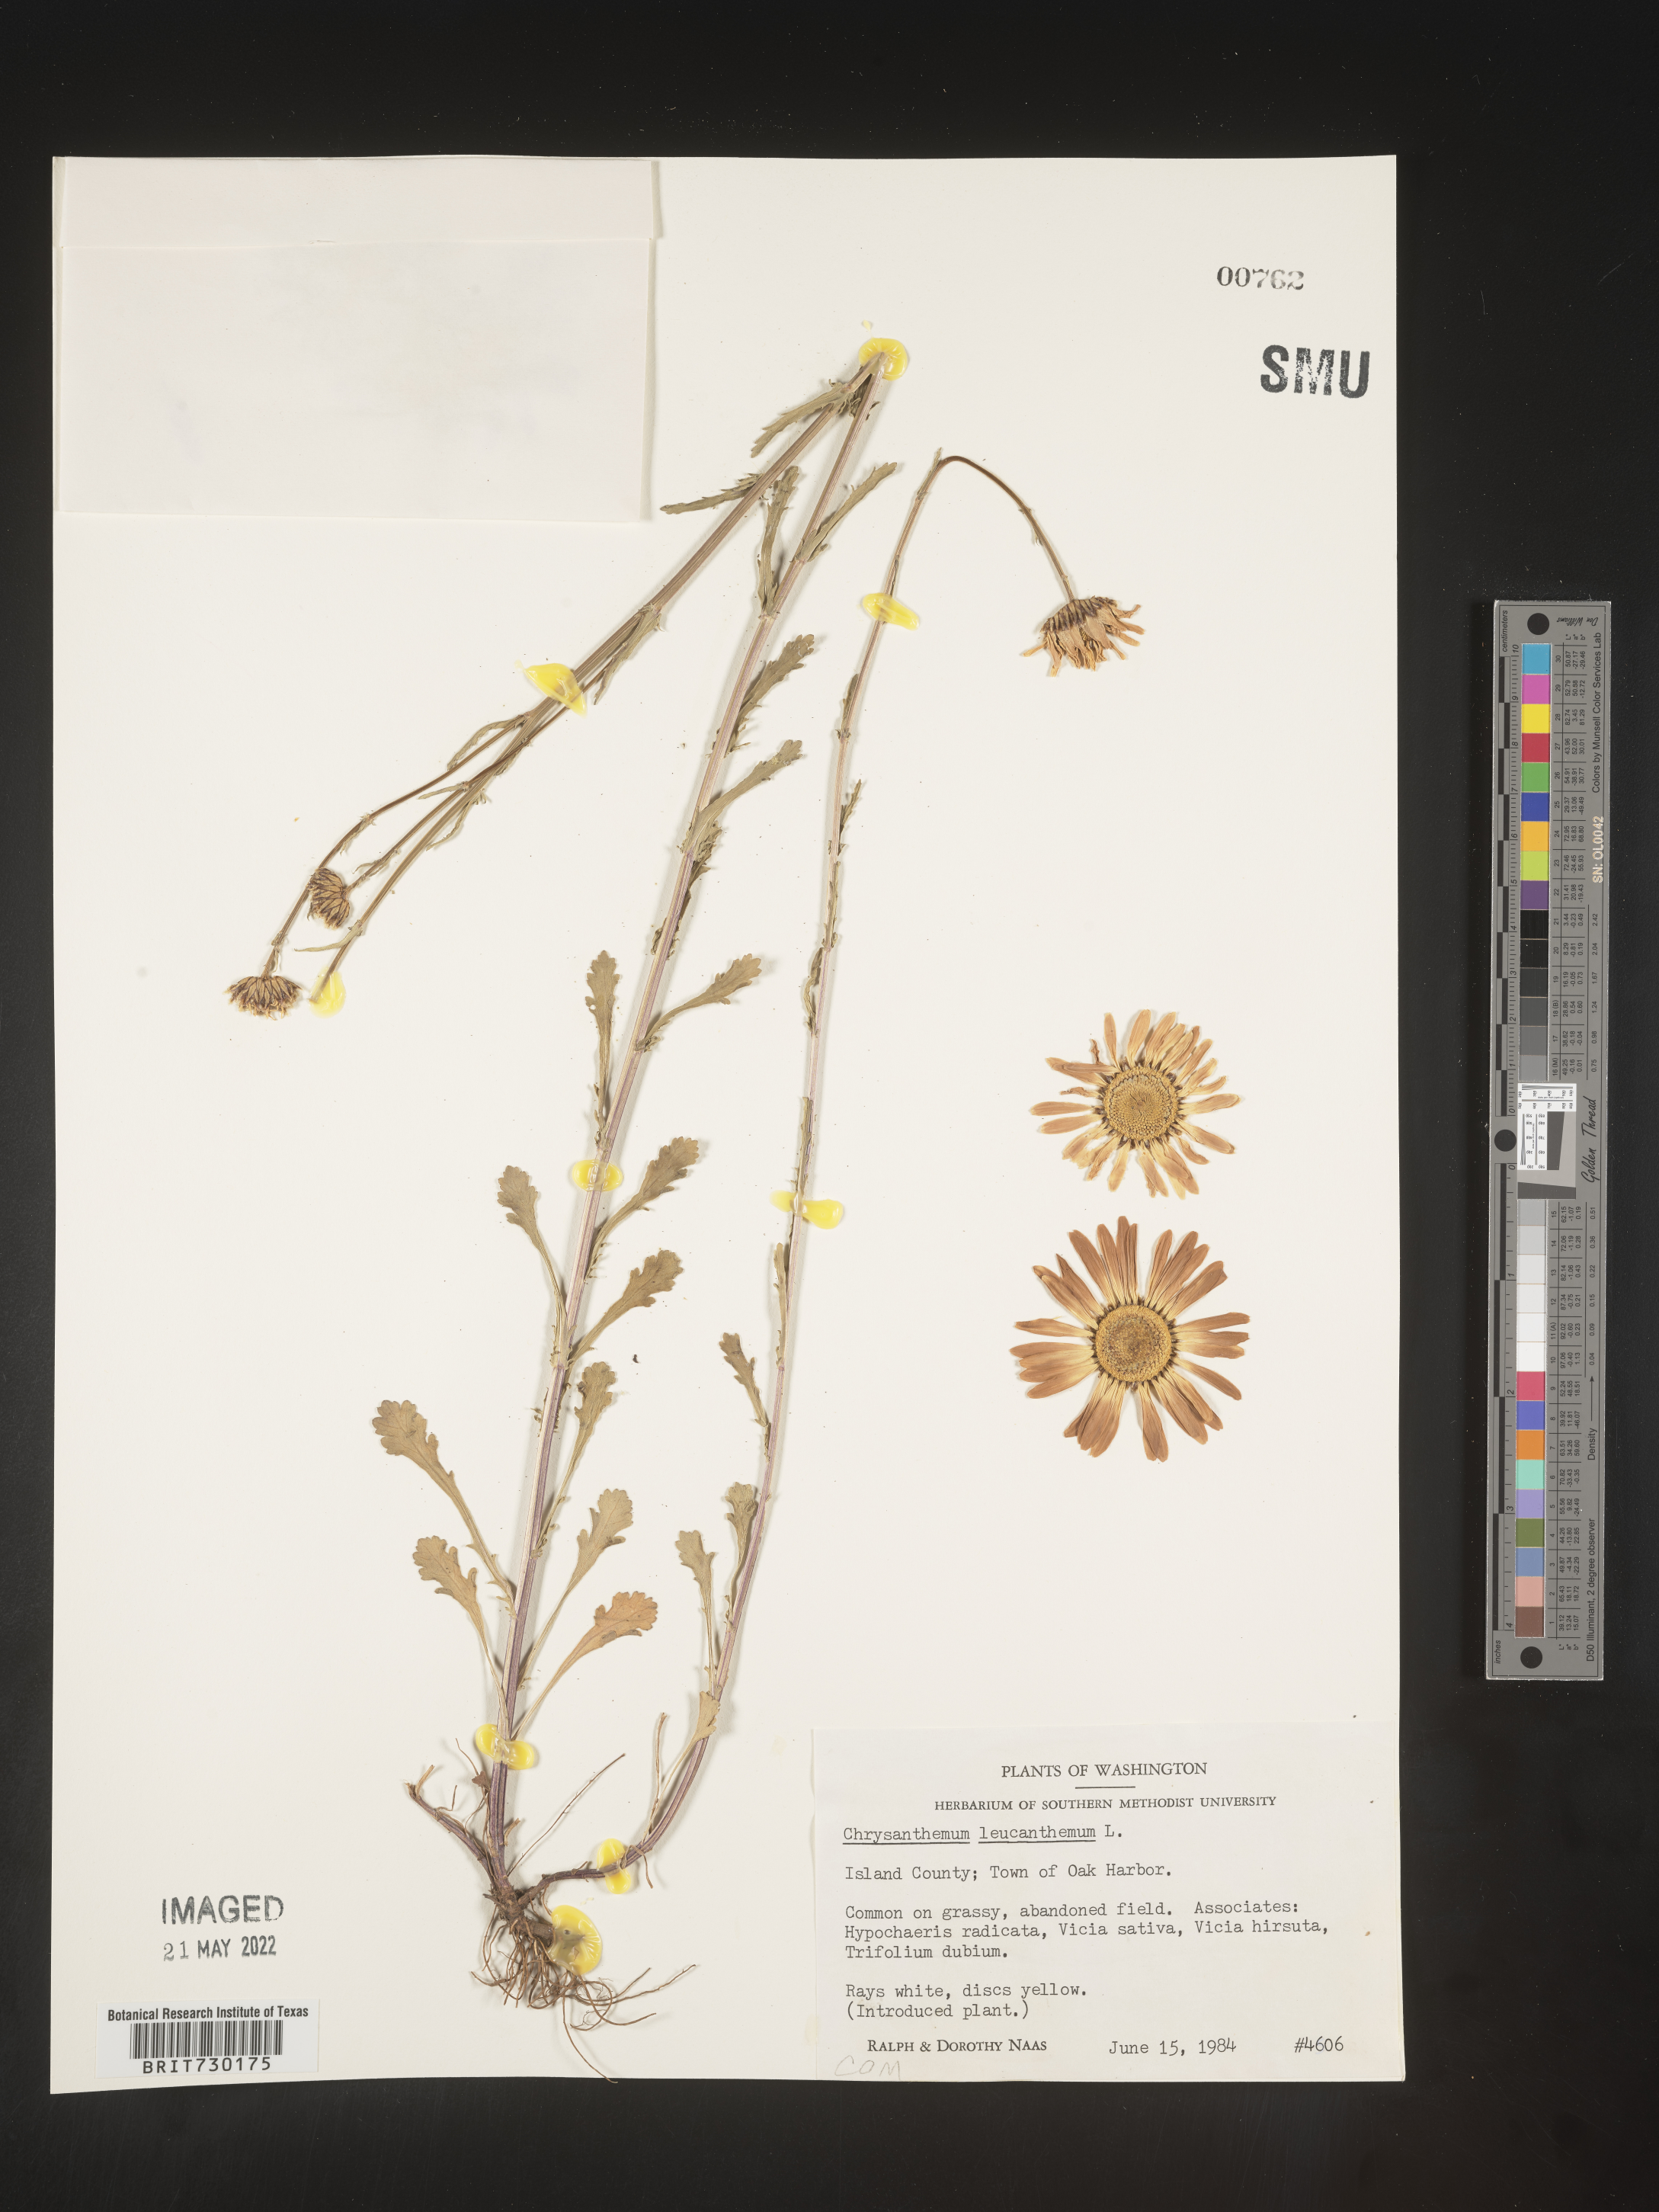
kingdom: Plantae
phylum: Tracheophyta
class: Magnoliopsida
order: Asterales
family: Asteraceae
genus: Leucanthemum
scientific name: Leucanthemum vulgare
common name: Oxeye daisy
